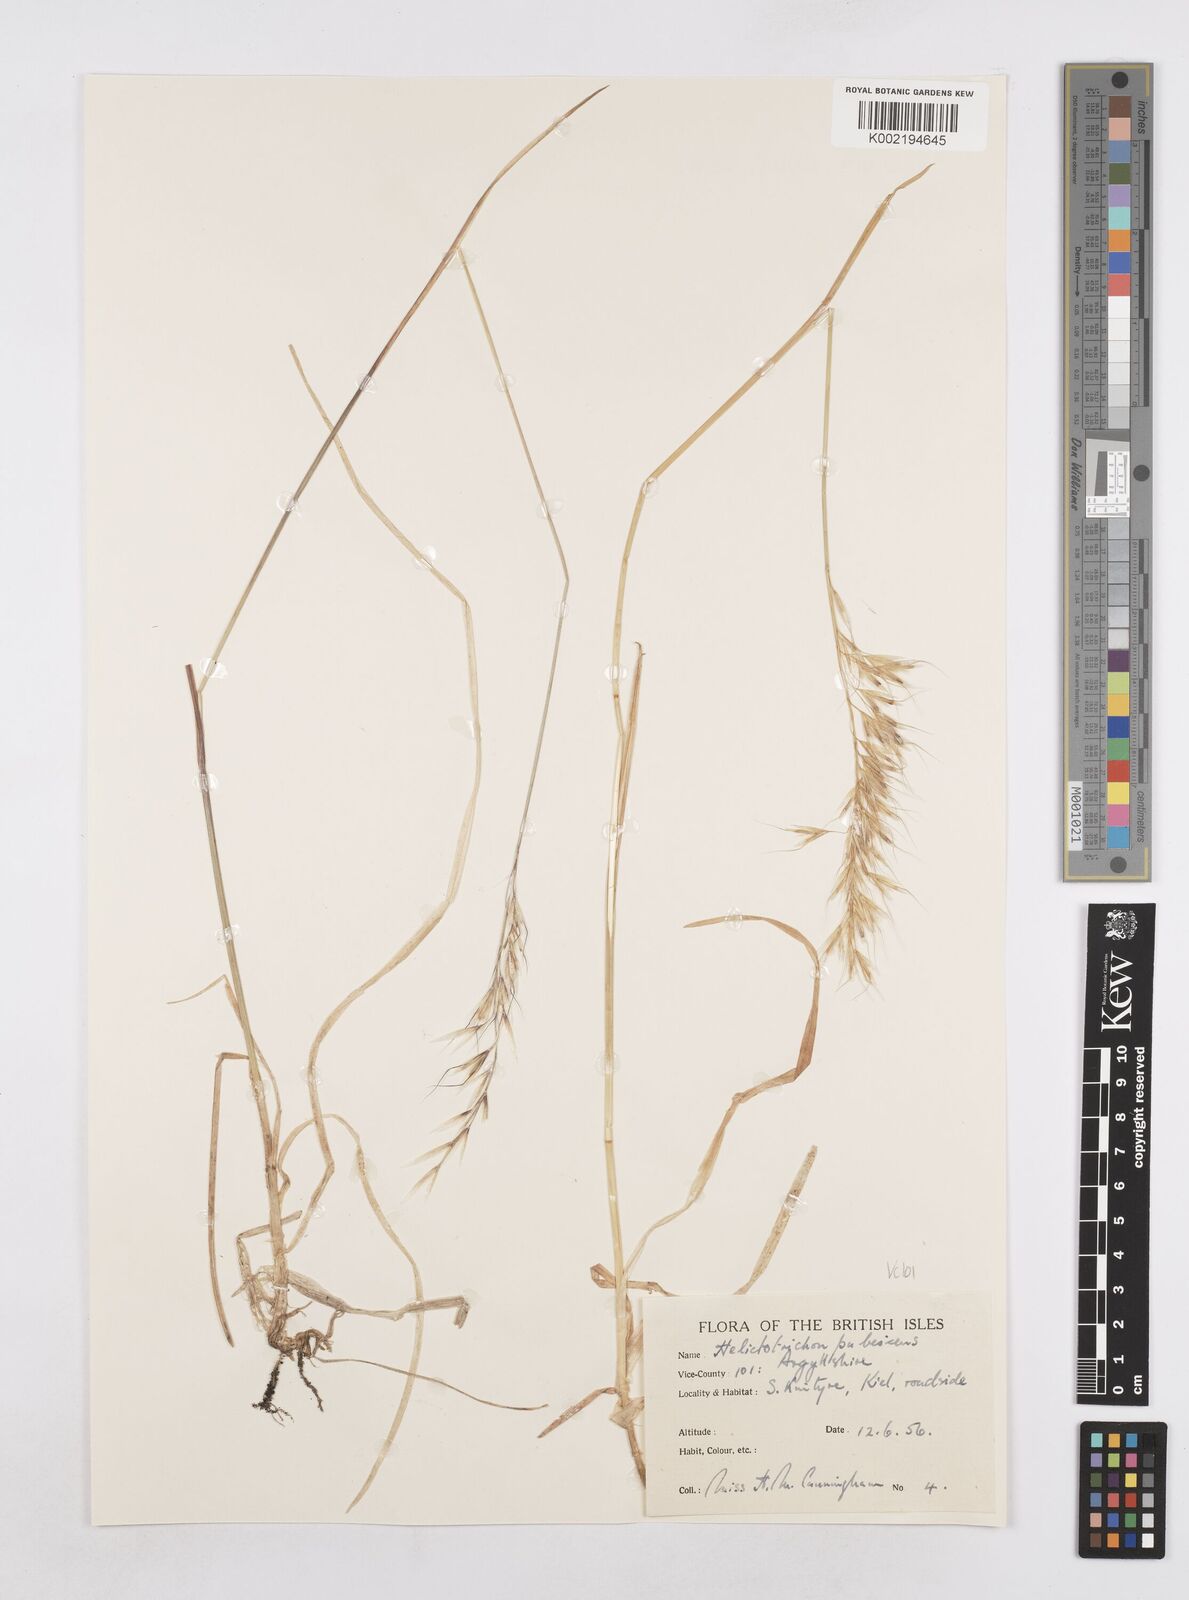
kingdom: Plantae
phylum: Tracheophyta
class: Liliopsida
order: Poales
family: Poaceae
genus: Avenula
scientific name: Avenula pubescens
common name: Downy alpine oatgrass
